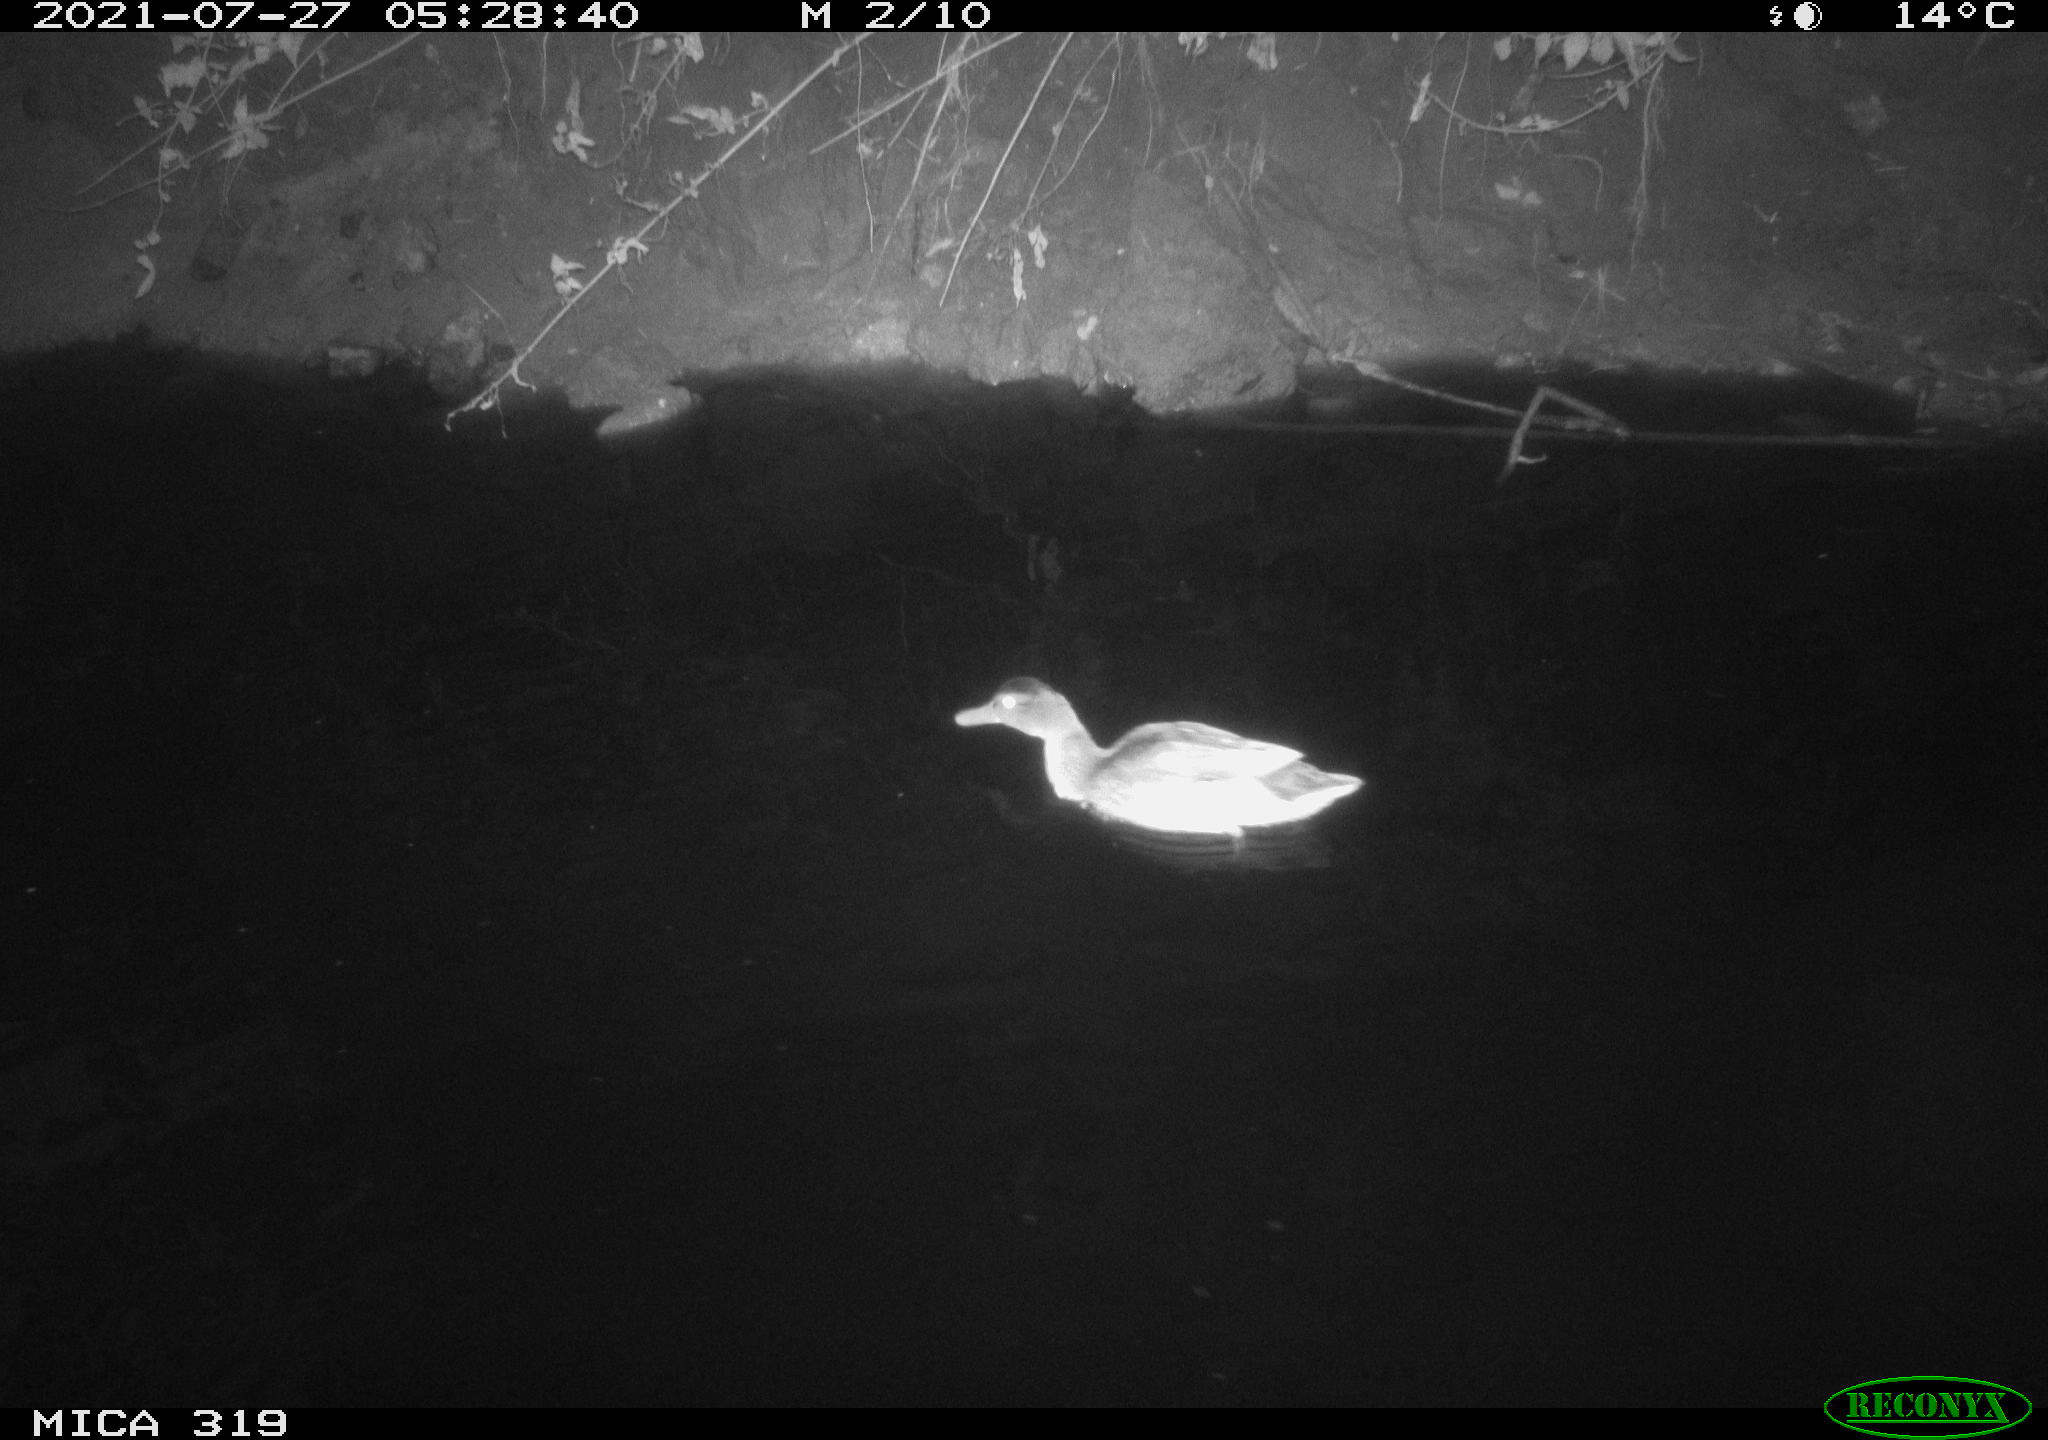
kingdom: Animalia
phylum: Chordata
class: Aves
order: Anseriformes
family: Anatidae
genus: Anas
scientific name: Anas platyrhynchos
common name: Mallard
